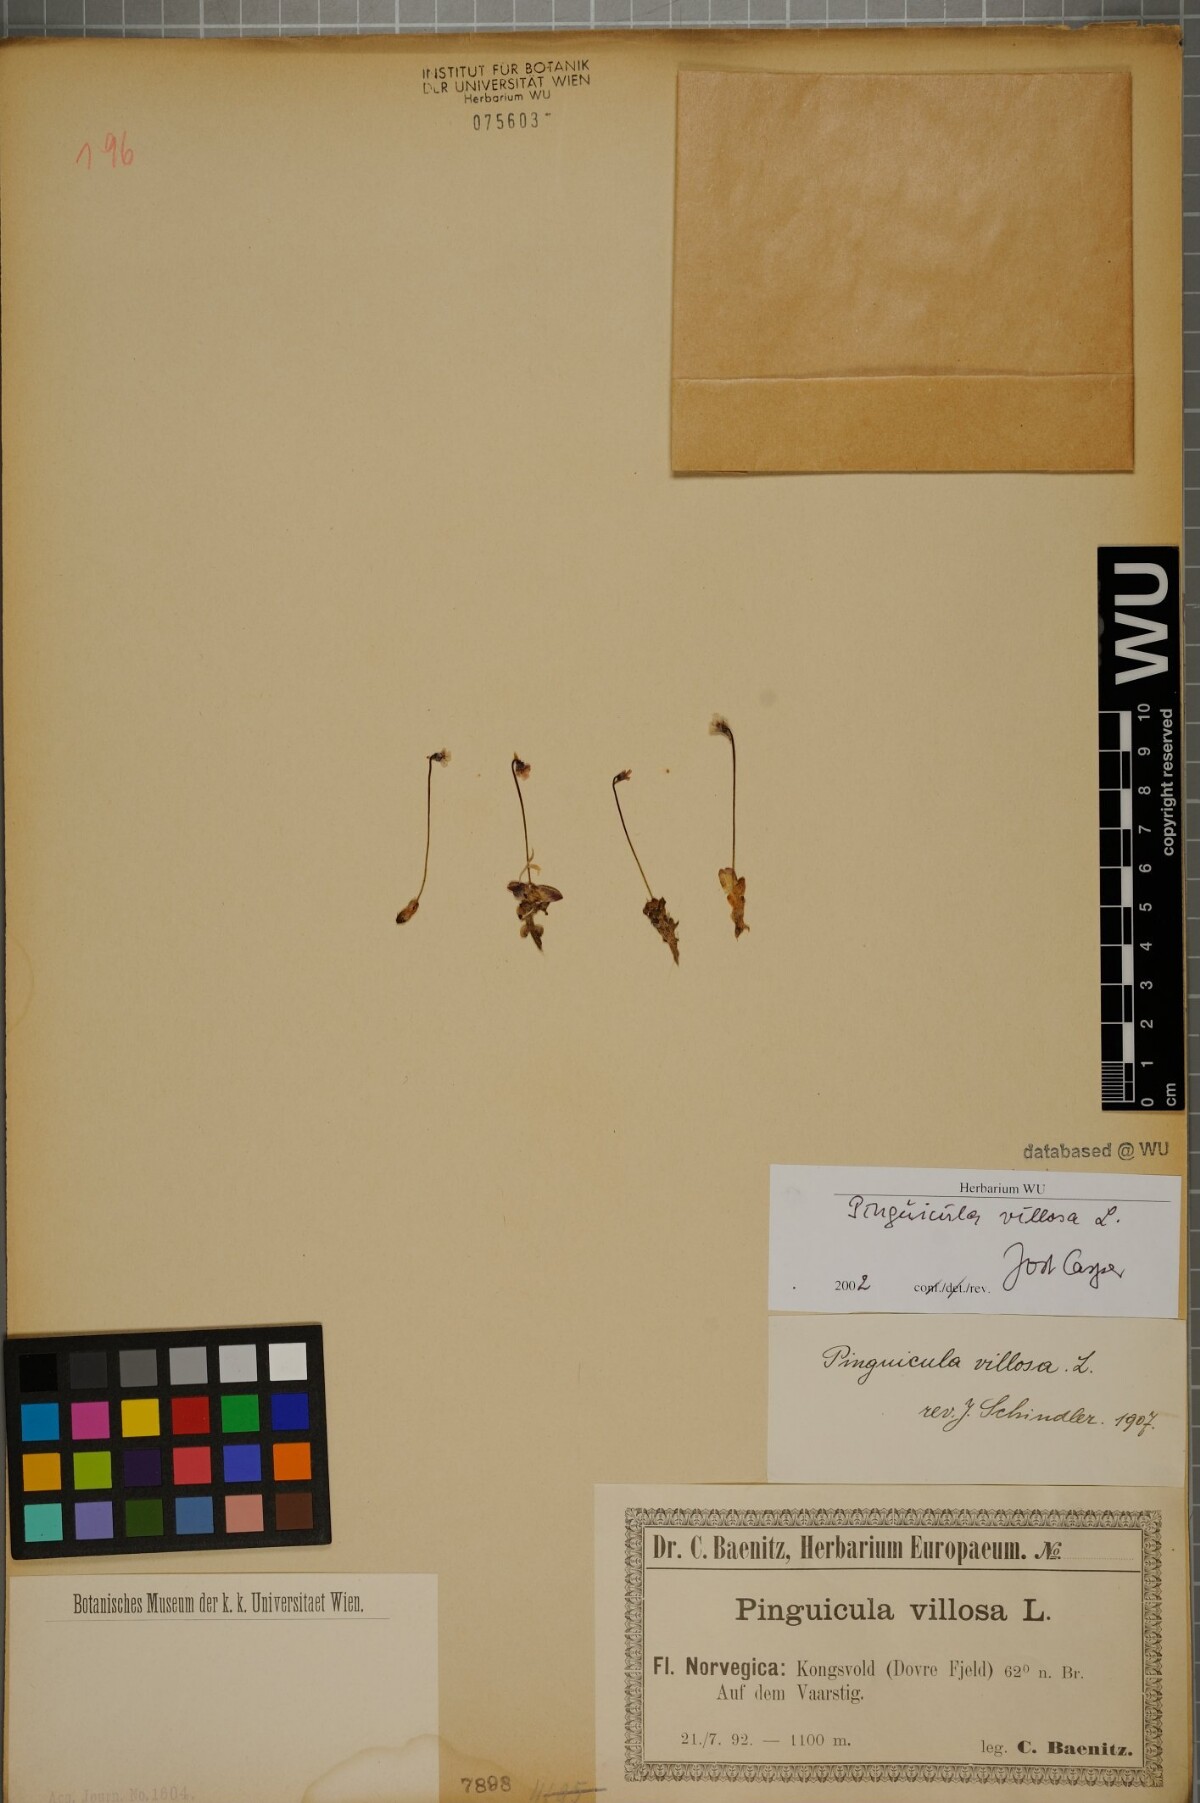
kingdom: Plantae
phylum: Tracheophyta
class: Magnoliopsida
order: Lamiales
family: Lentibulariaceae
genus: Pinguicula
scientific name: Pinguicula villosa
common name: Hairy butterwort
